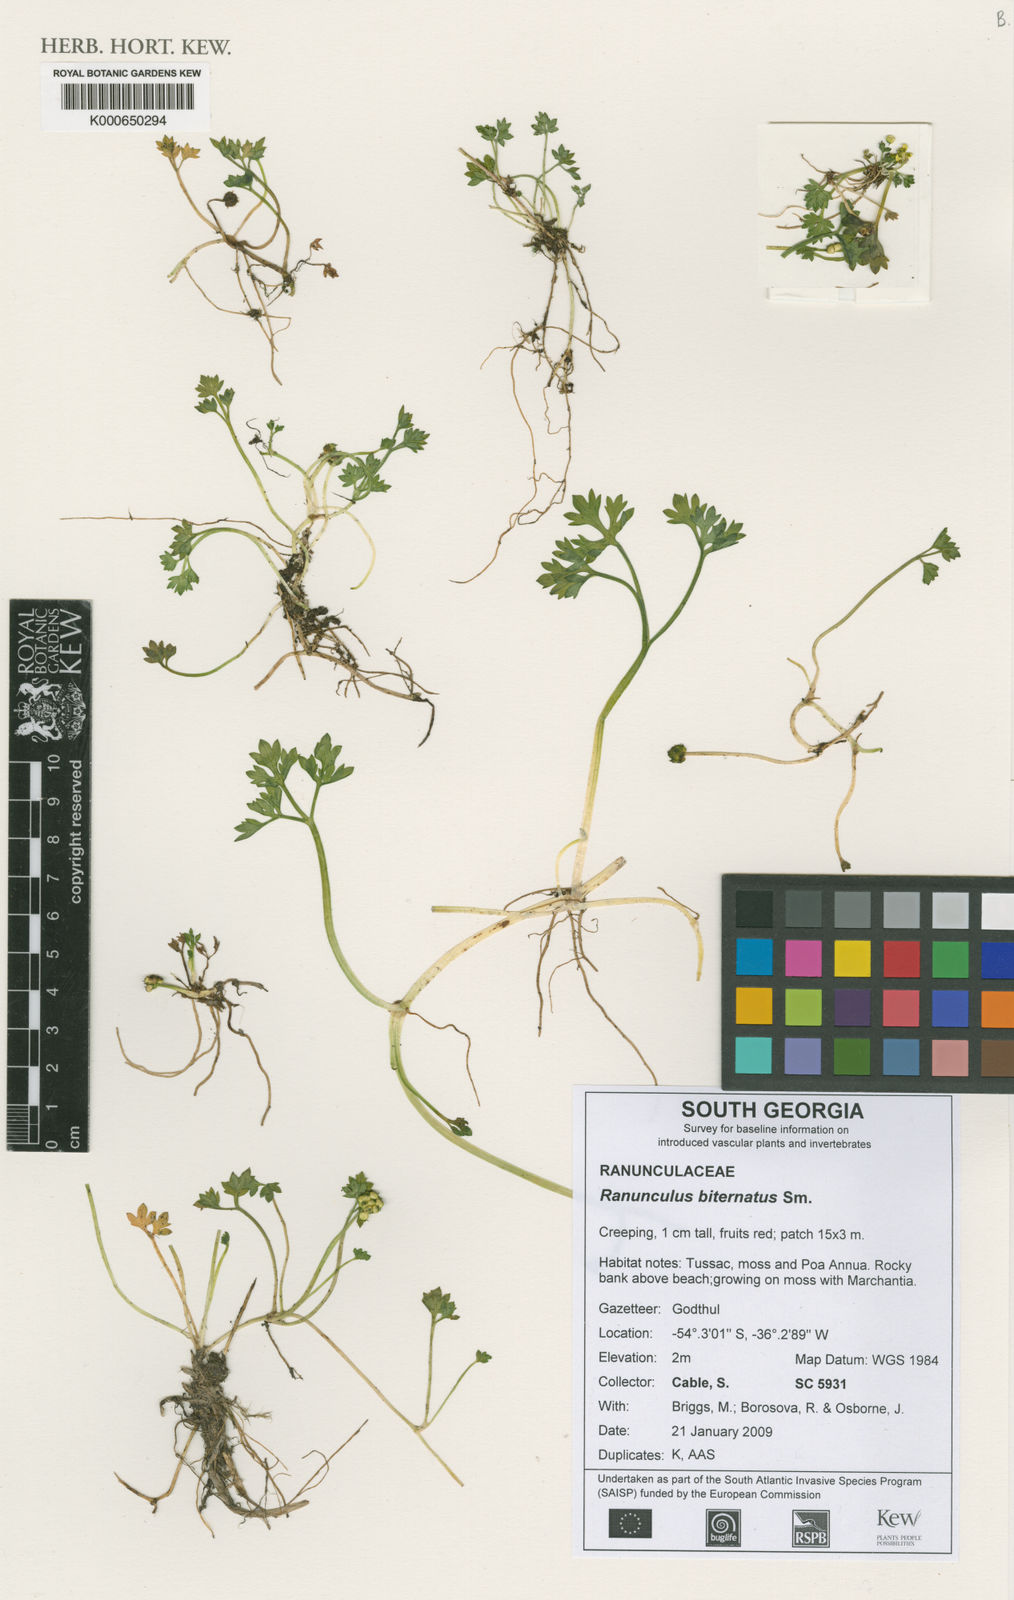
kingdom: Plantae
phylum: Tracheophyta
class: Magnoliopsida
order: Ranunculales
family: Ranunculaceae
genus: Ranunculus
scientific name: Ranunculus biternatus
